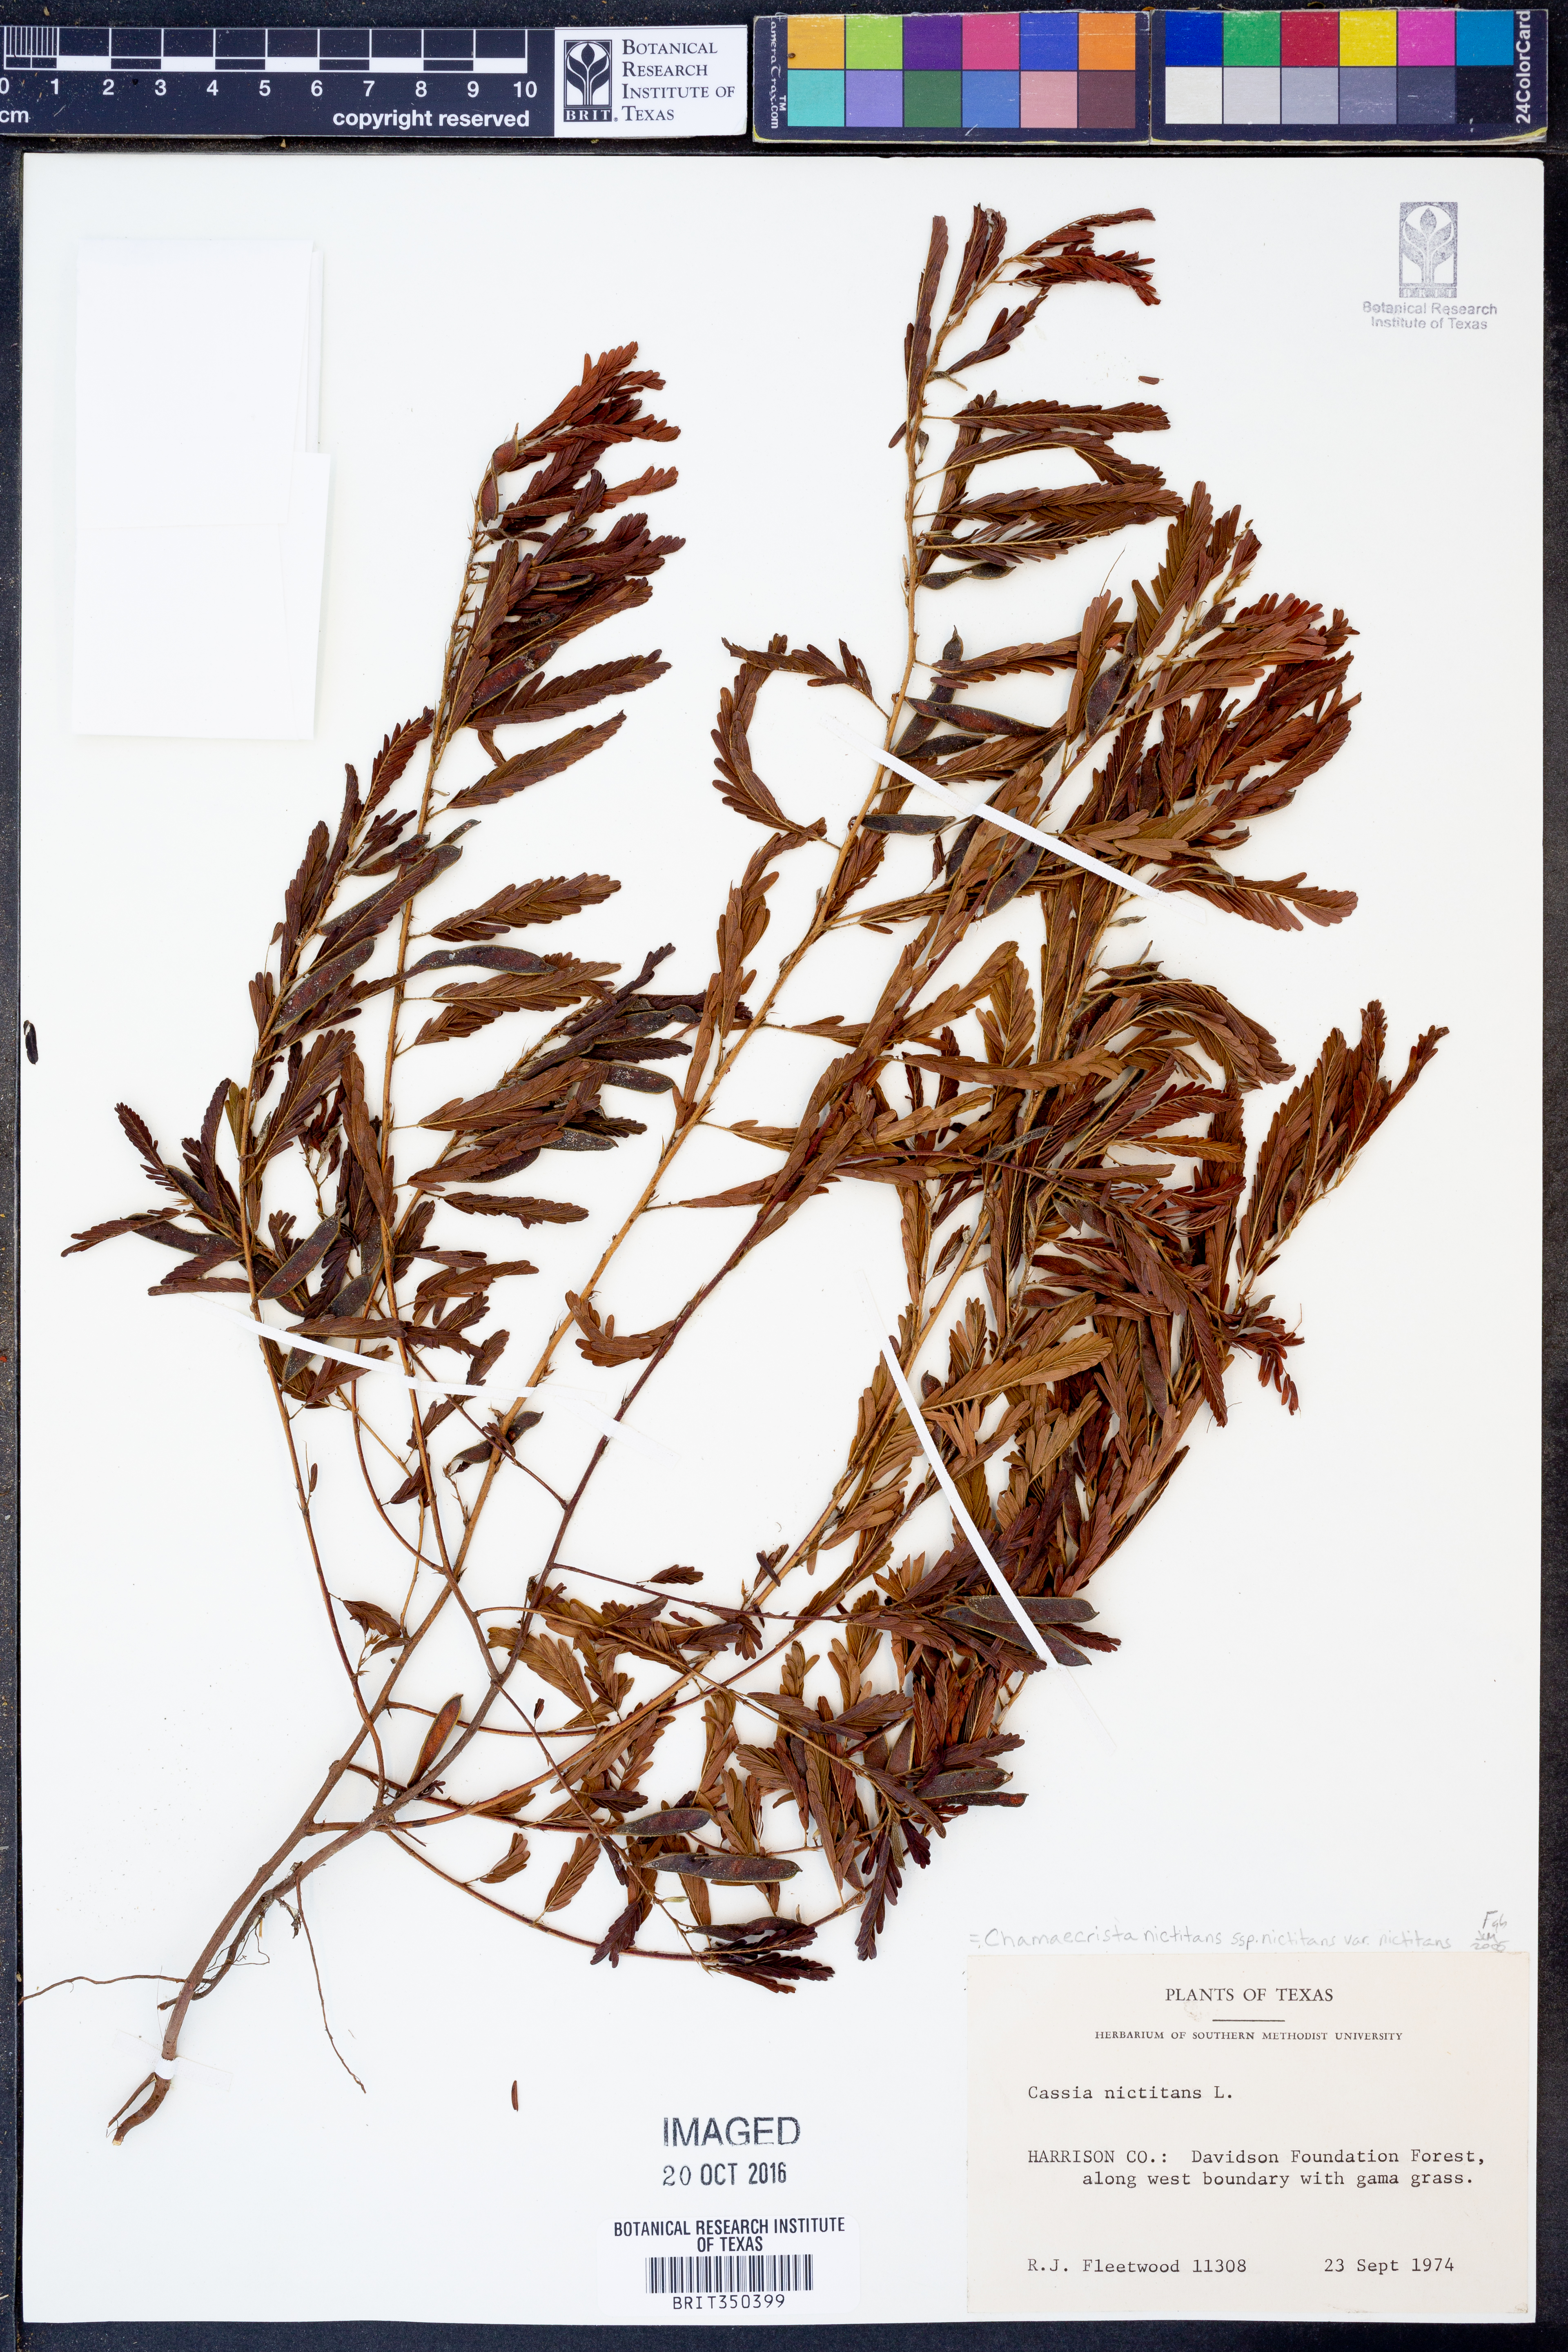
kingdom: Plantae
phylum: Tracheophyta
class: Magnoliopsida
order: Fabales
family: Fabaceae
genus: Chamaecrista
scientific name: Chamaecrista nictitans
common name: Sensitive cassia
